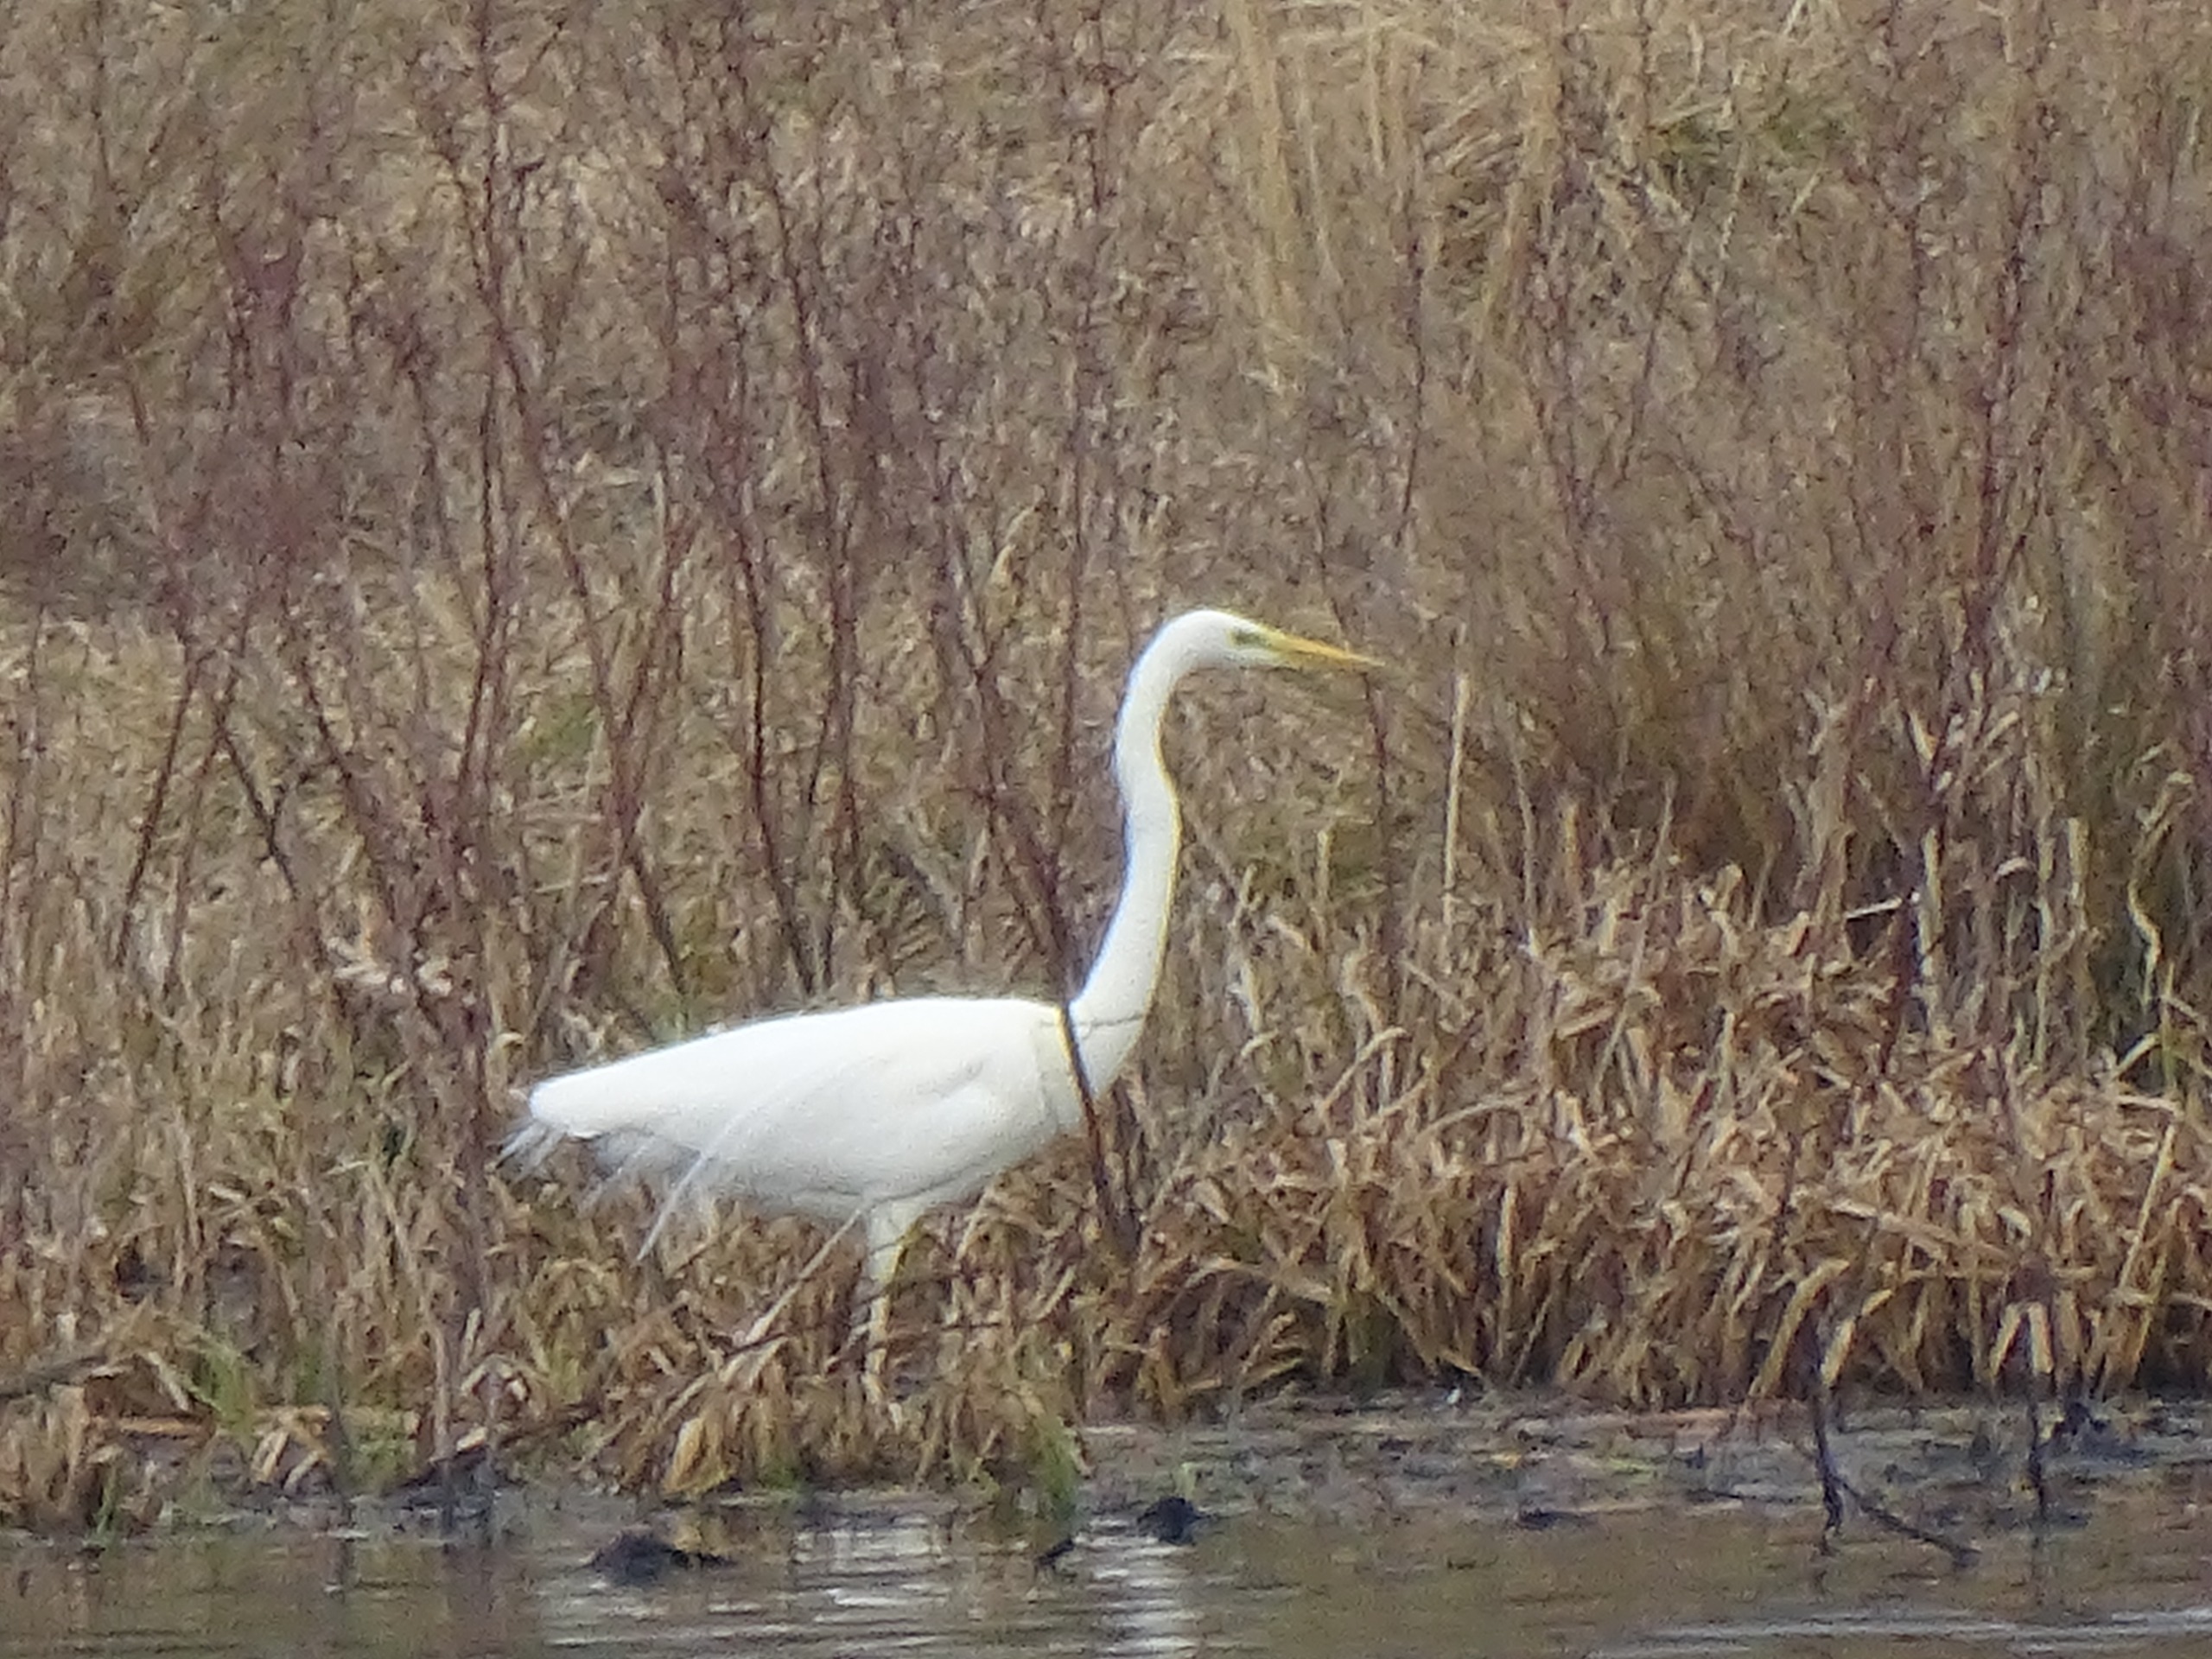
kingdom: Animalia
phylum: Chordata
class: Aves
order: Pelecaniformes
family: Ardeidae
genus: Ardea
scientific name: Ardea alba
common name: Sølvhejre
